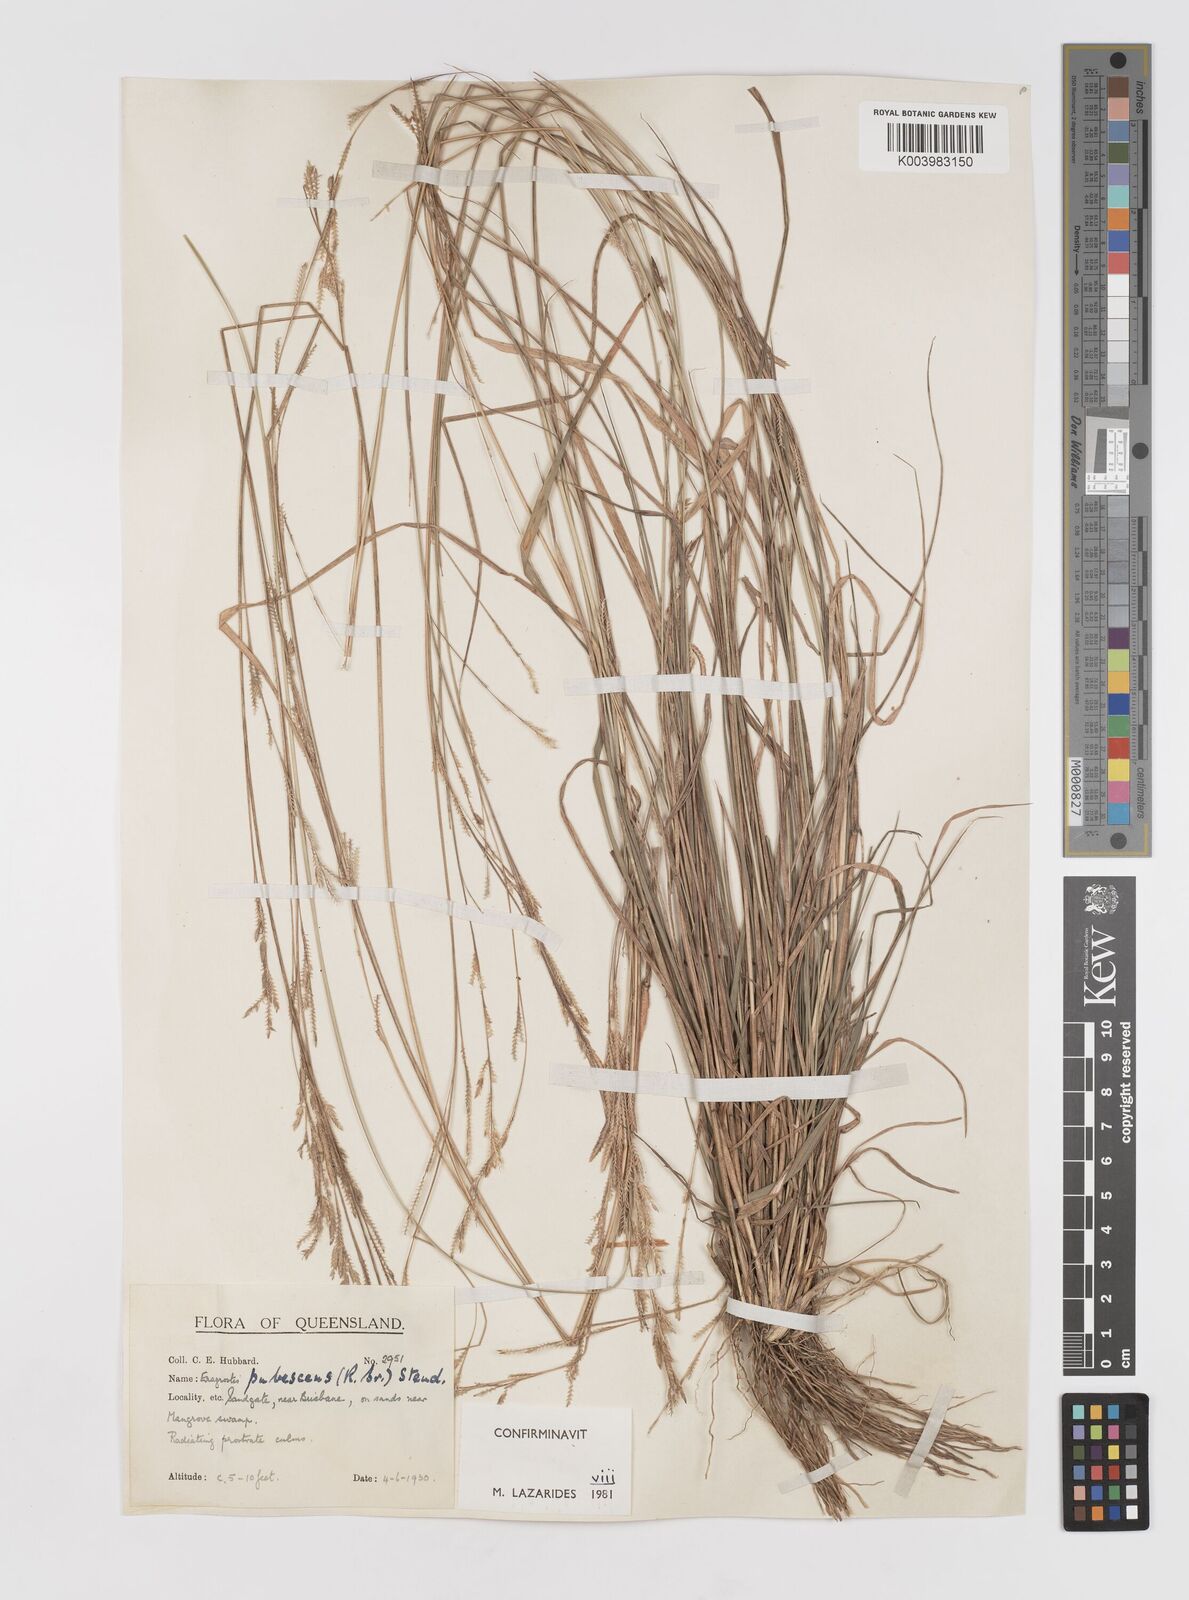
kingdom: Plantae
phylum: Tracheophyta
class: Liliopsida
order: Poales
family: Poaceae
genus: Eragrostis
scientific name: Eragrostis pubescens
